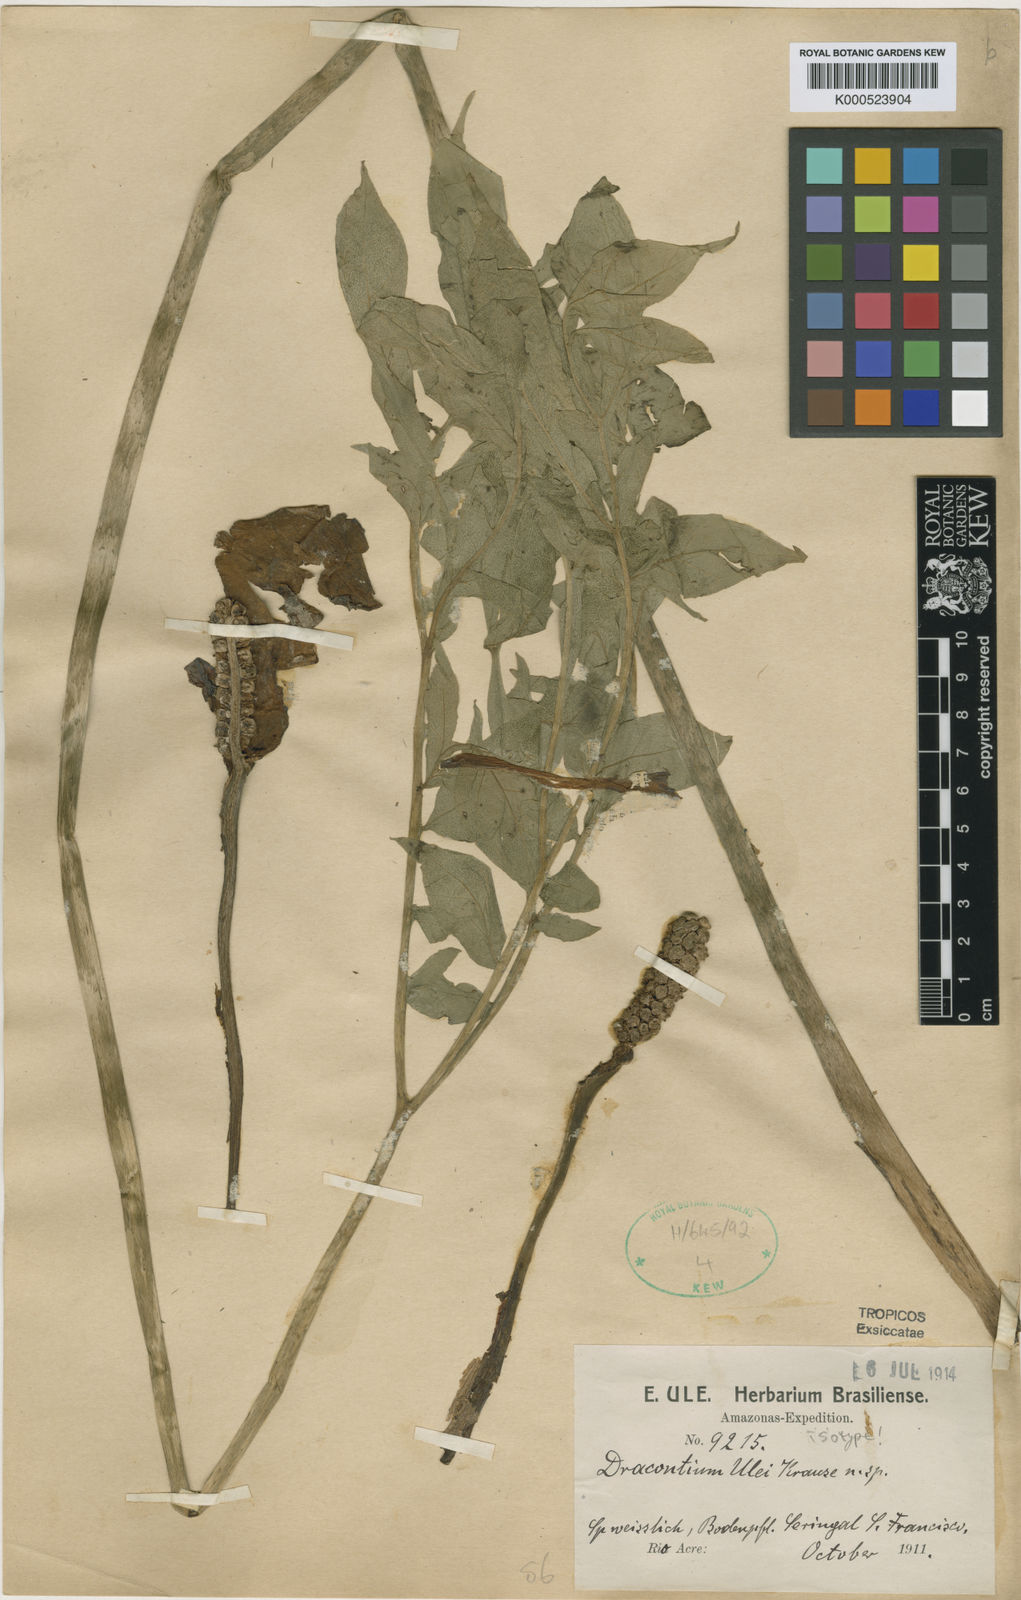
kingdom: Plantae
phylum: Tracheophyta
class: Liliopsida
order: Alismatales
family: Araceae
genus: Dracontium
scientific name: Dracontium ulei
